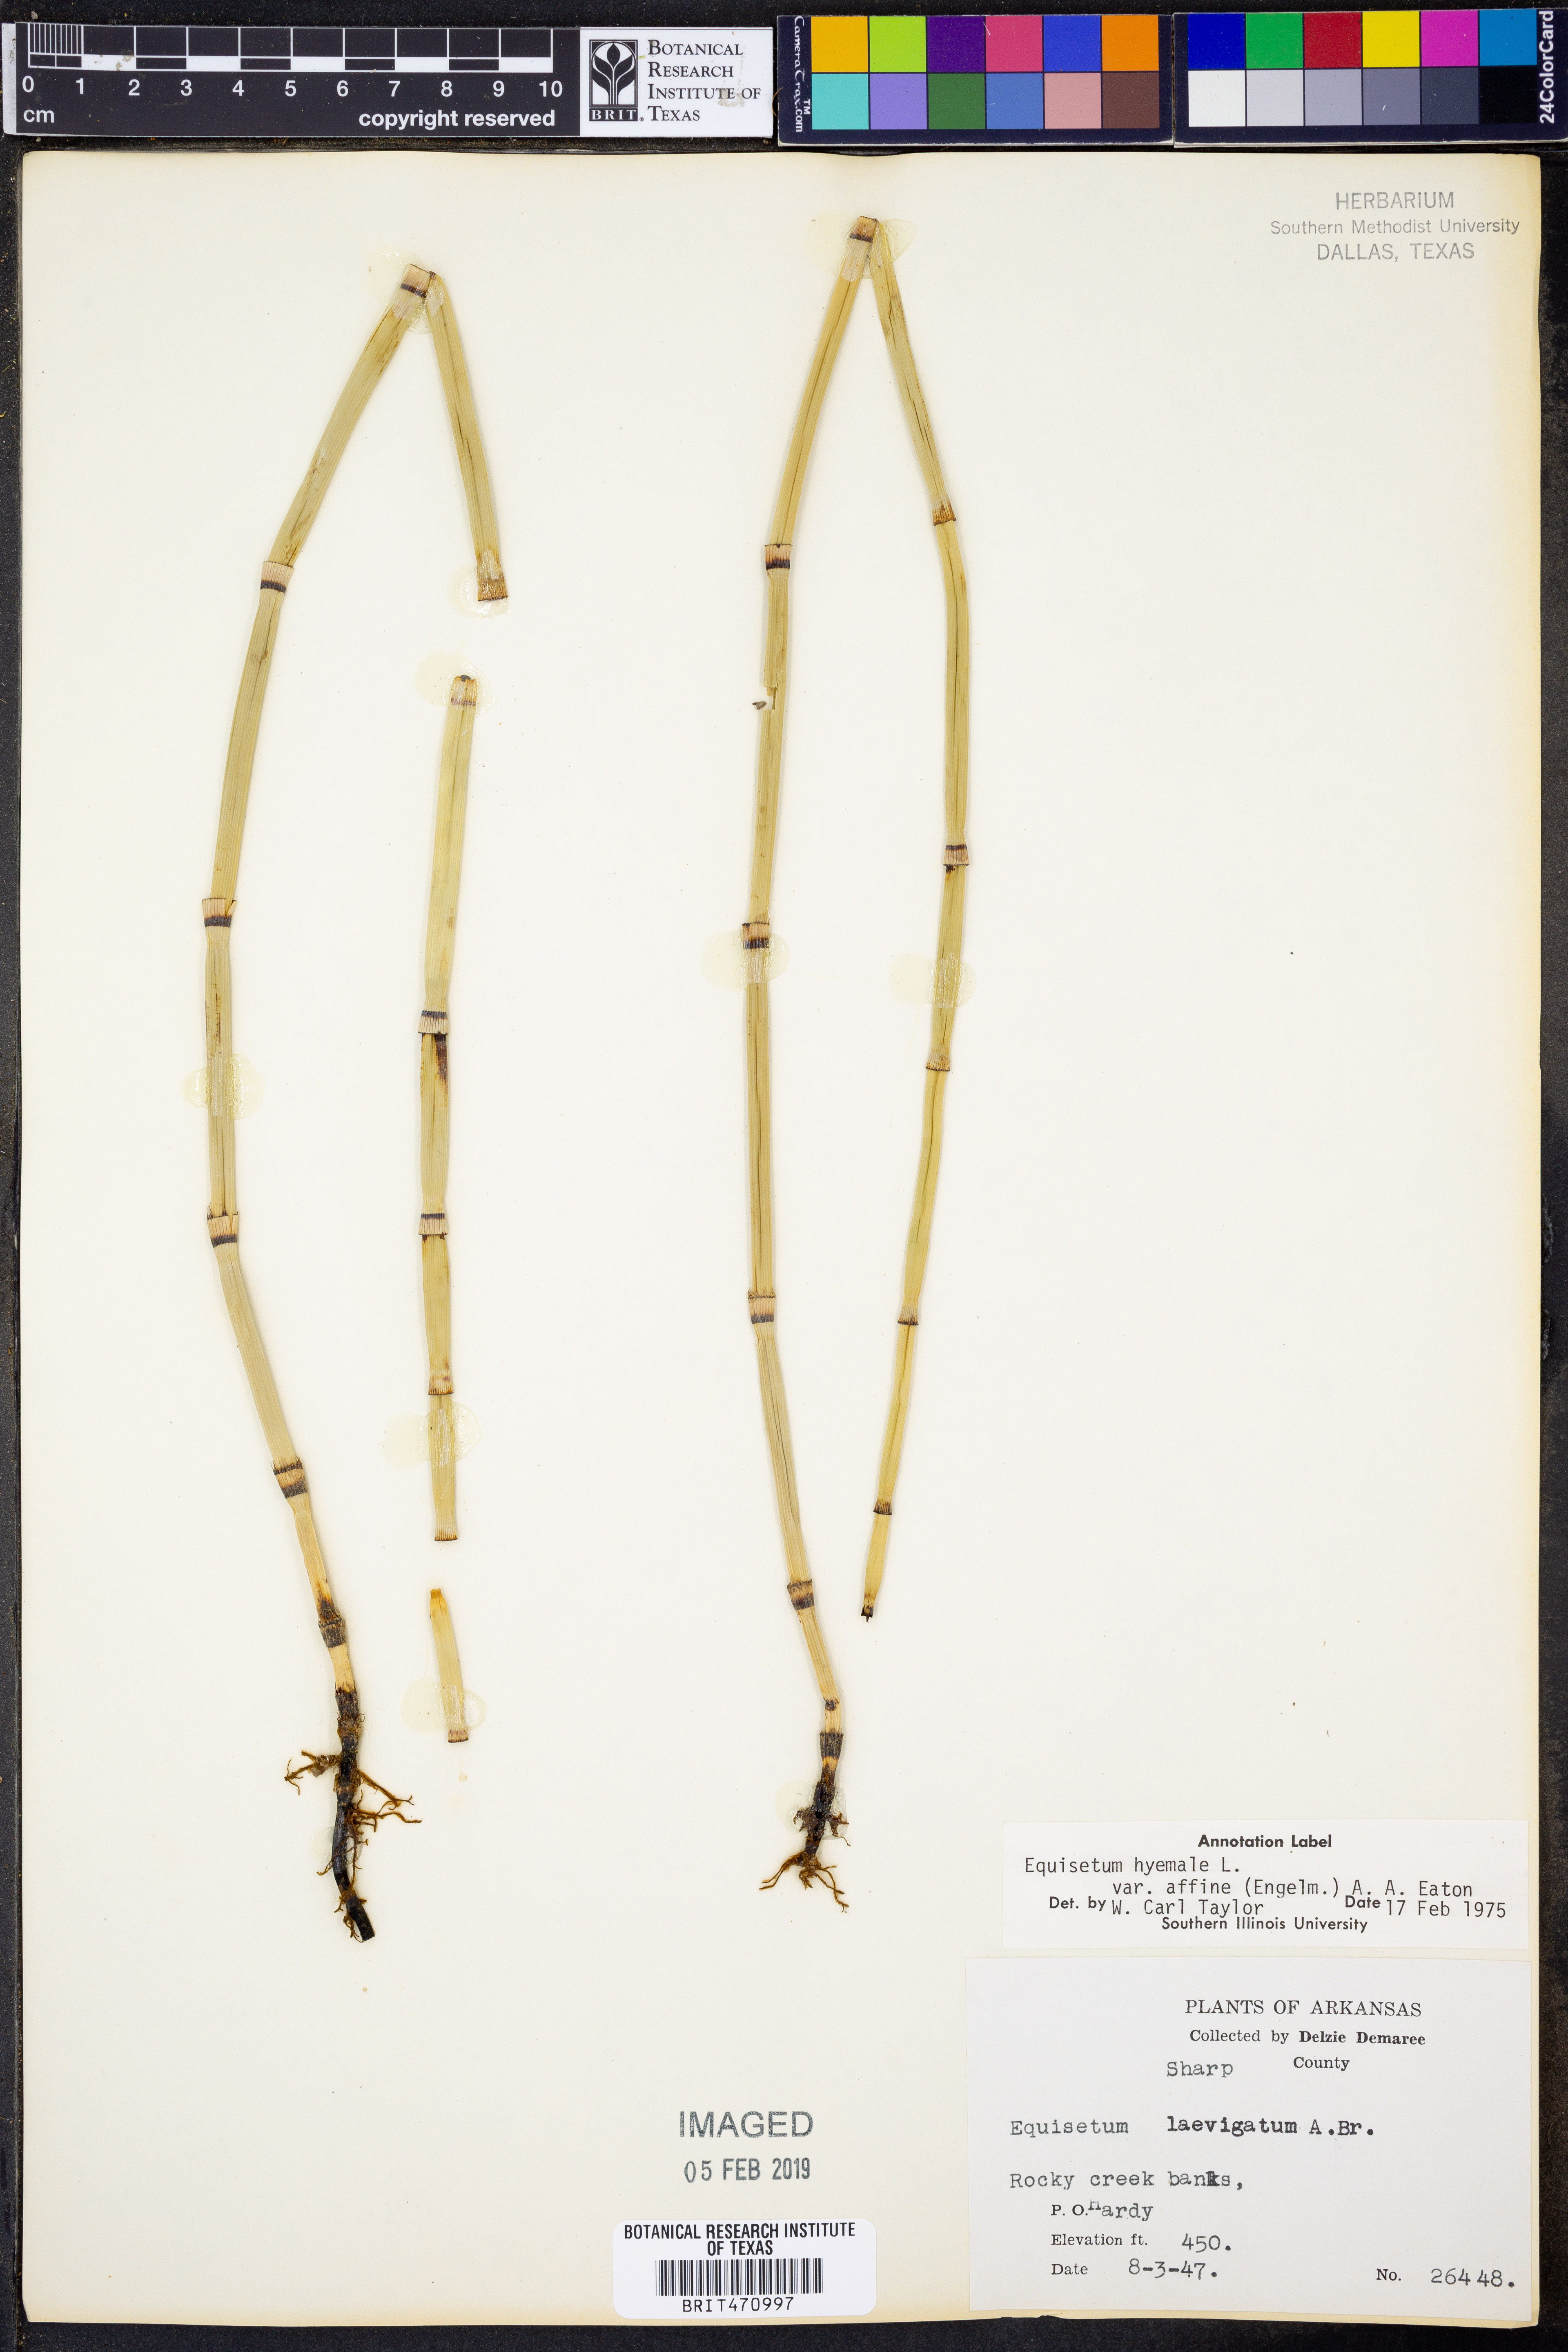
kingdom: Plantae
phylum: Tracheophyta
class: Polypodiopsida
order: Equisetales
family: Equisetaceae
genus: Equisetum
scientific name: Equisetum praealtum
